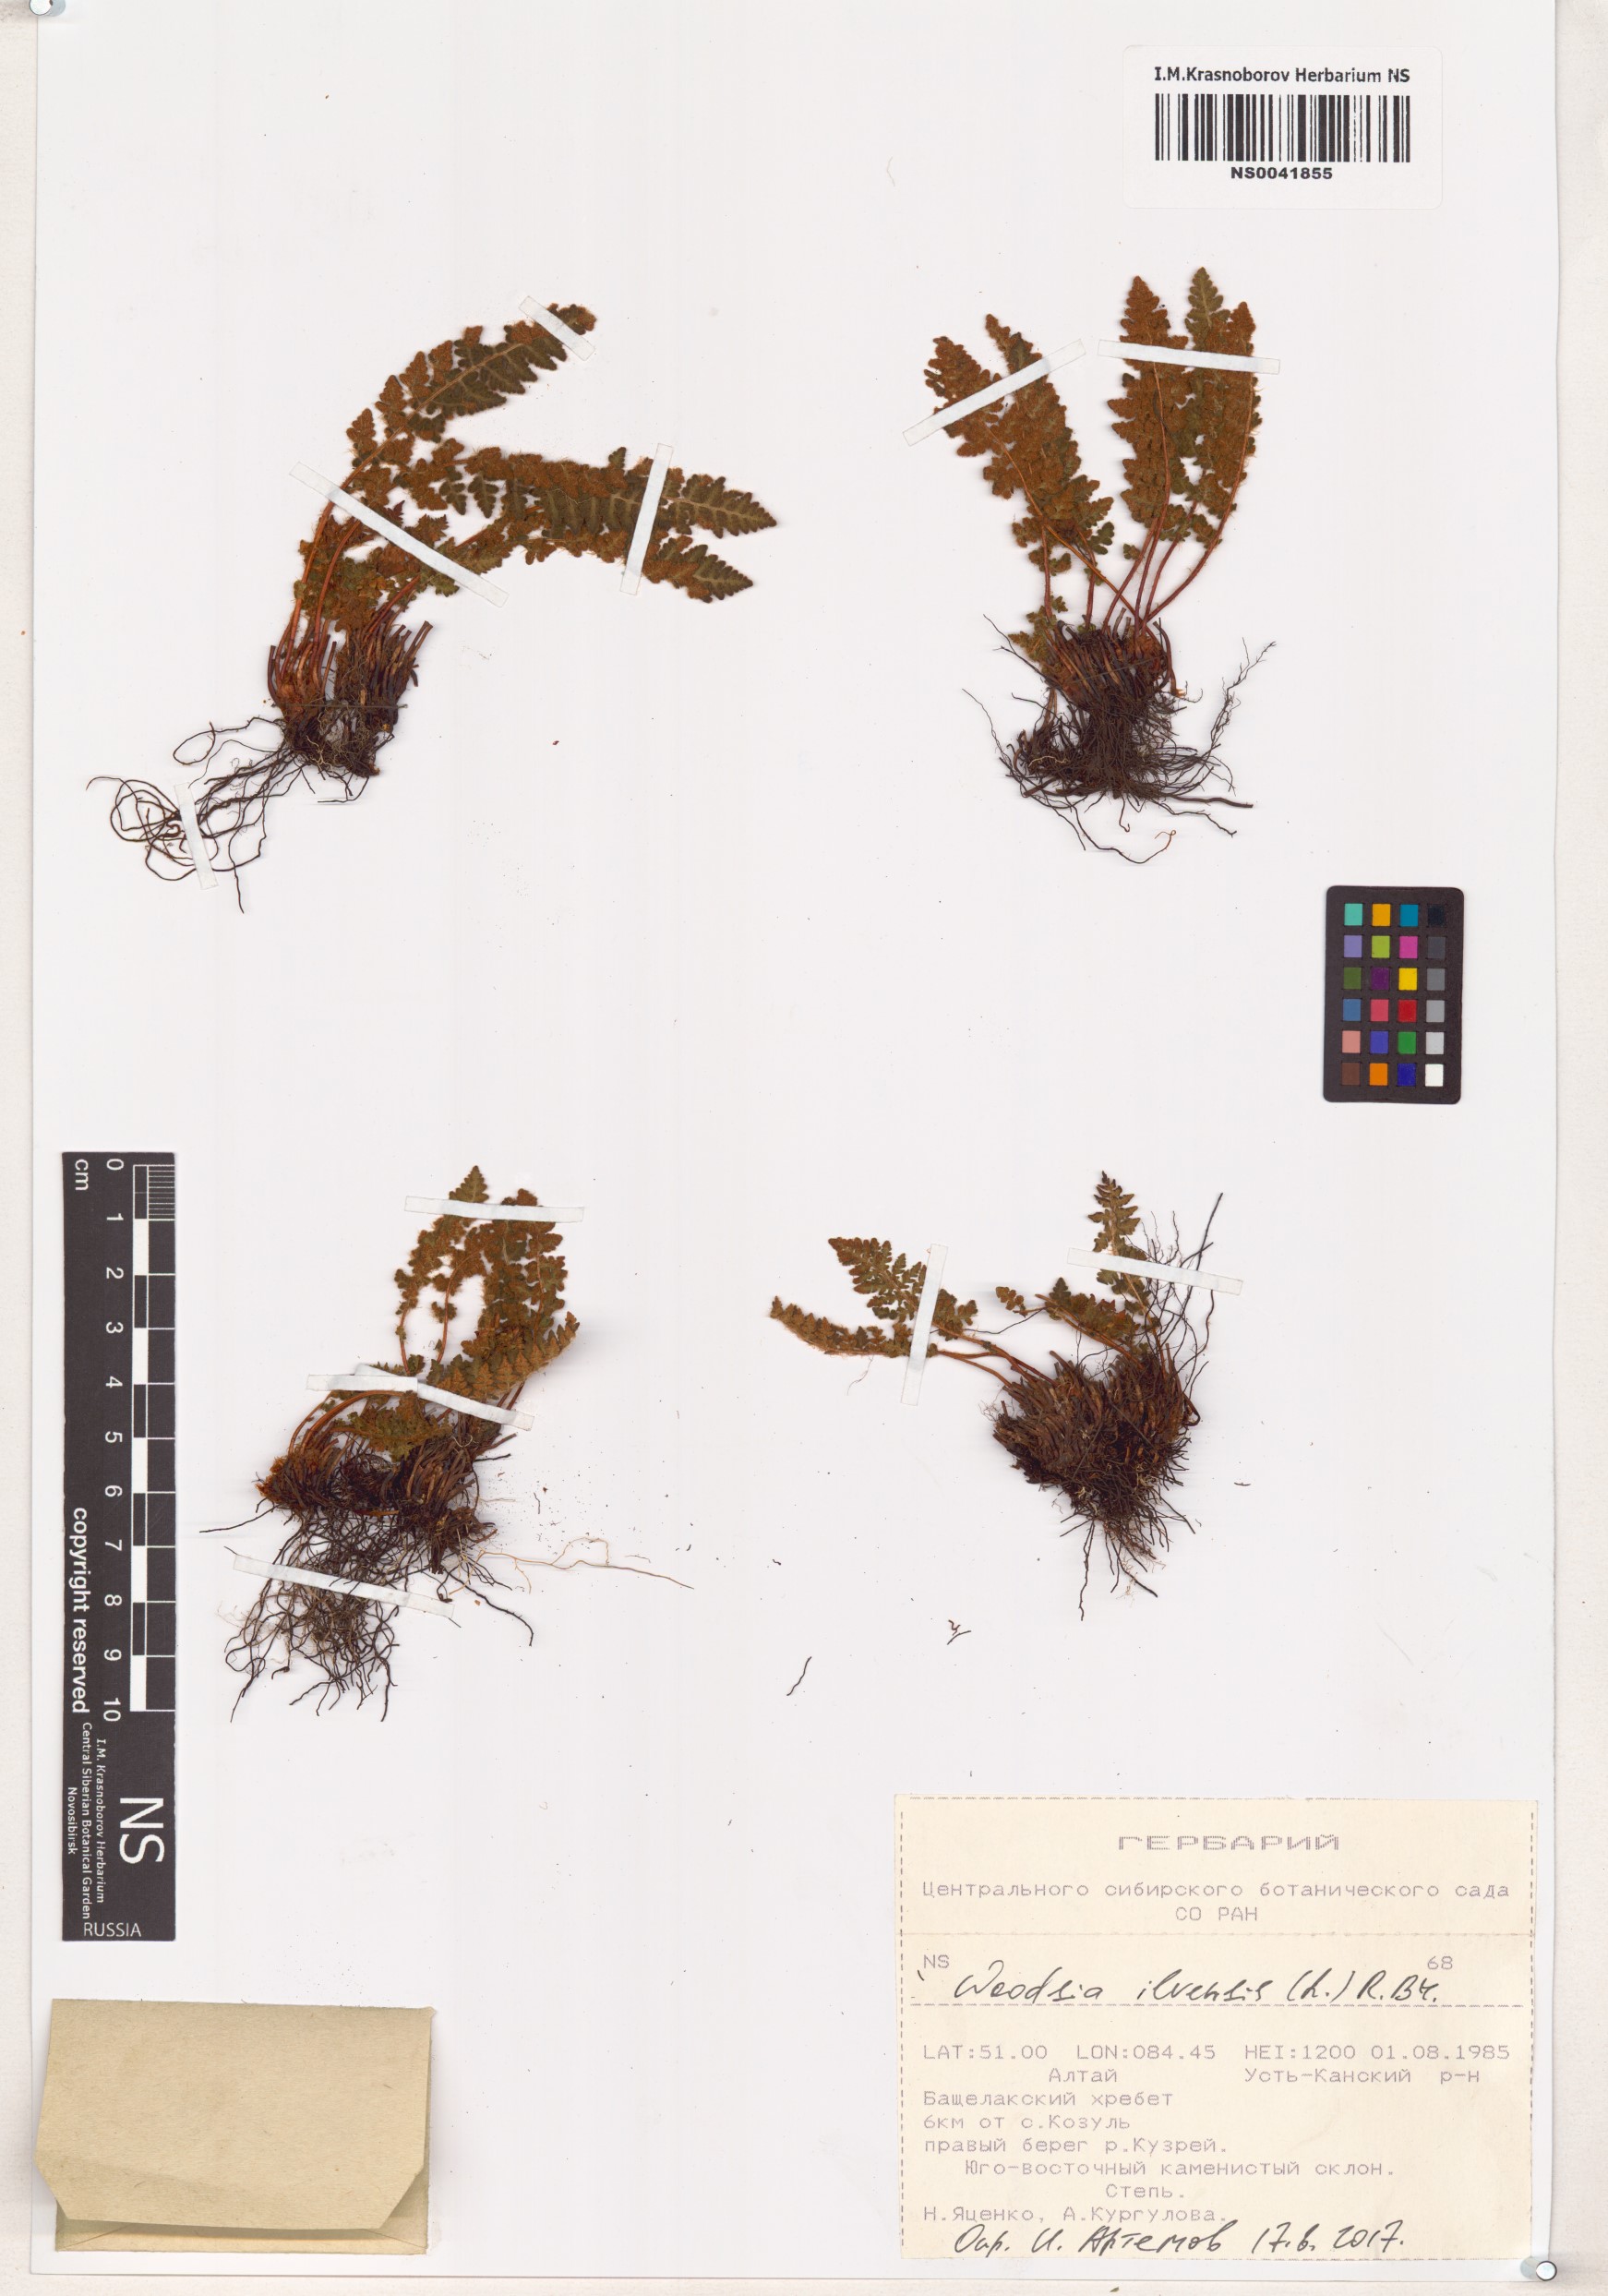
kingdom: Plantae
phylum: Tracheophyta
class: Polypodiopsida
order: Polypodiales
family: Woodsiaceae
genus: Woodsia
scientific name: Woodsia ilvensis
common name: Fragrant woodsia
